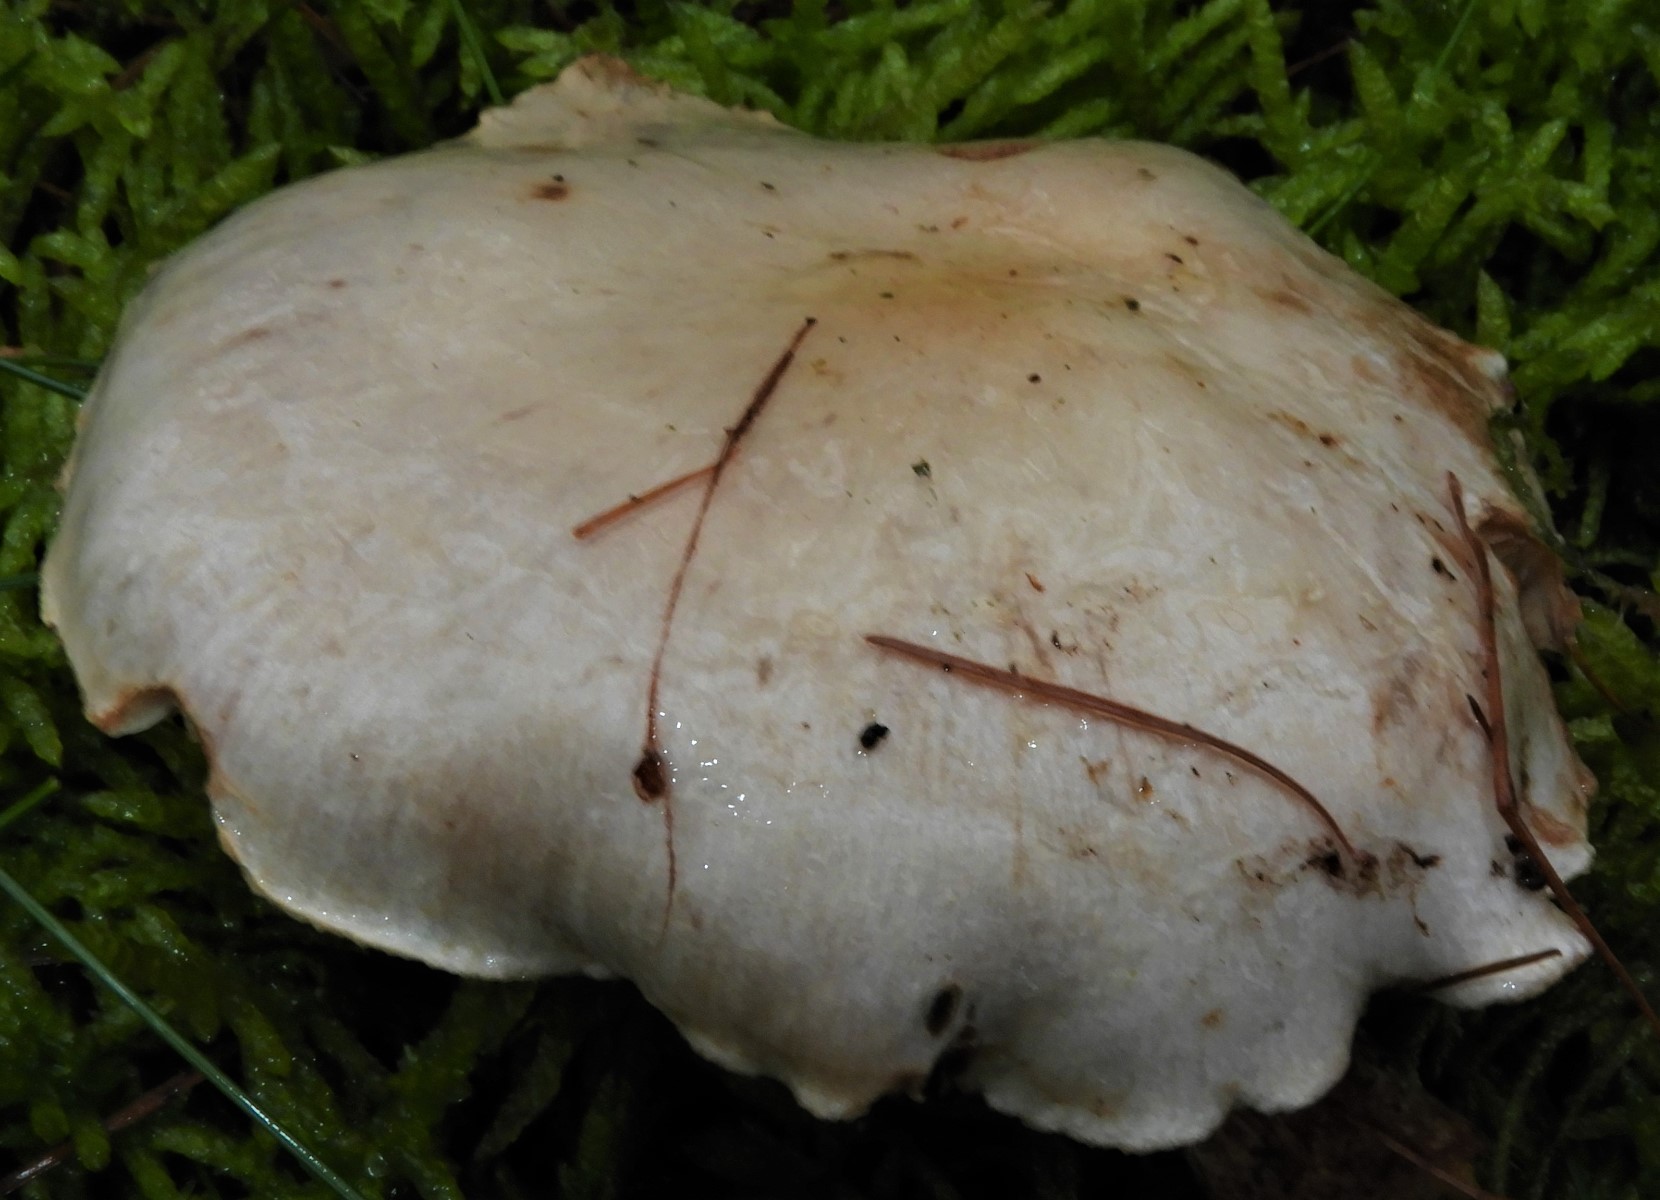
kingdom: Fungi
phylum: Basidiomycota
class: Agaricomycetes
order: Agaricales
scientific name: Agaricales
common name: champignonordenen
